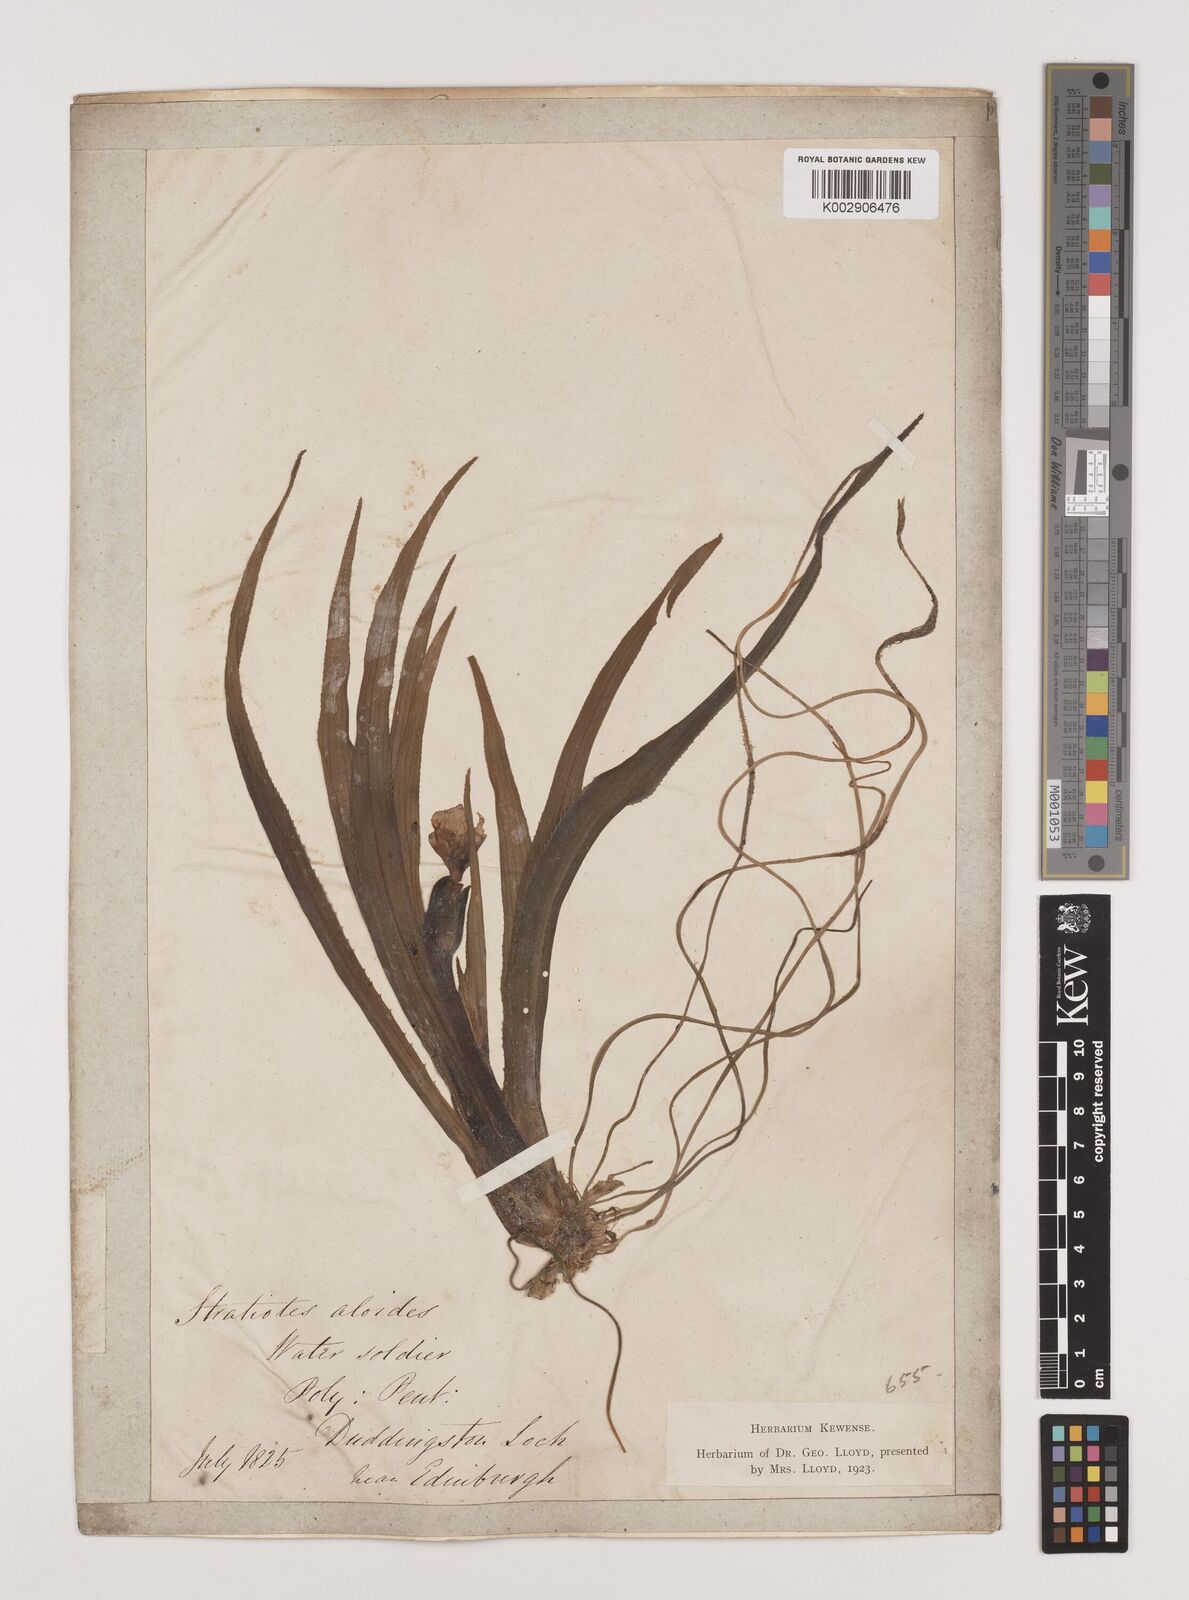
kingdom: Plantae
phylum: Tracheophyta
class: Liliopsida
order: Alismatales
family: Hydrocharitaceae
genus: Stratiotes
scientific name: Stratiotes aloides
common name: Water-soldier
